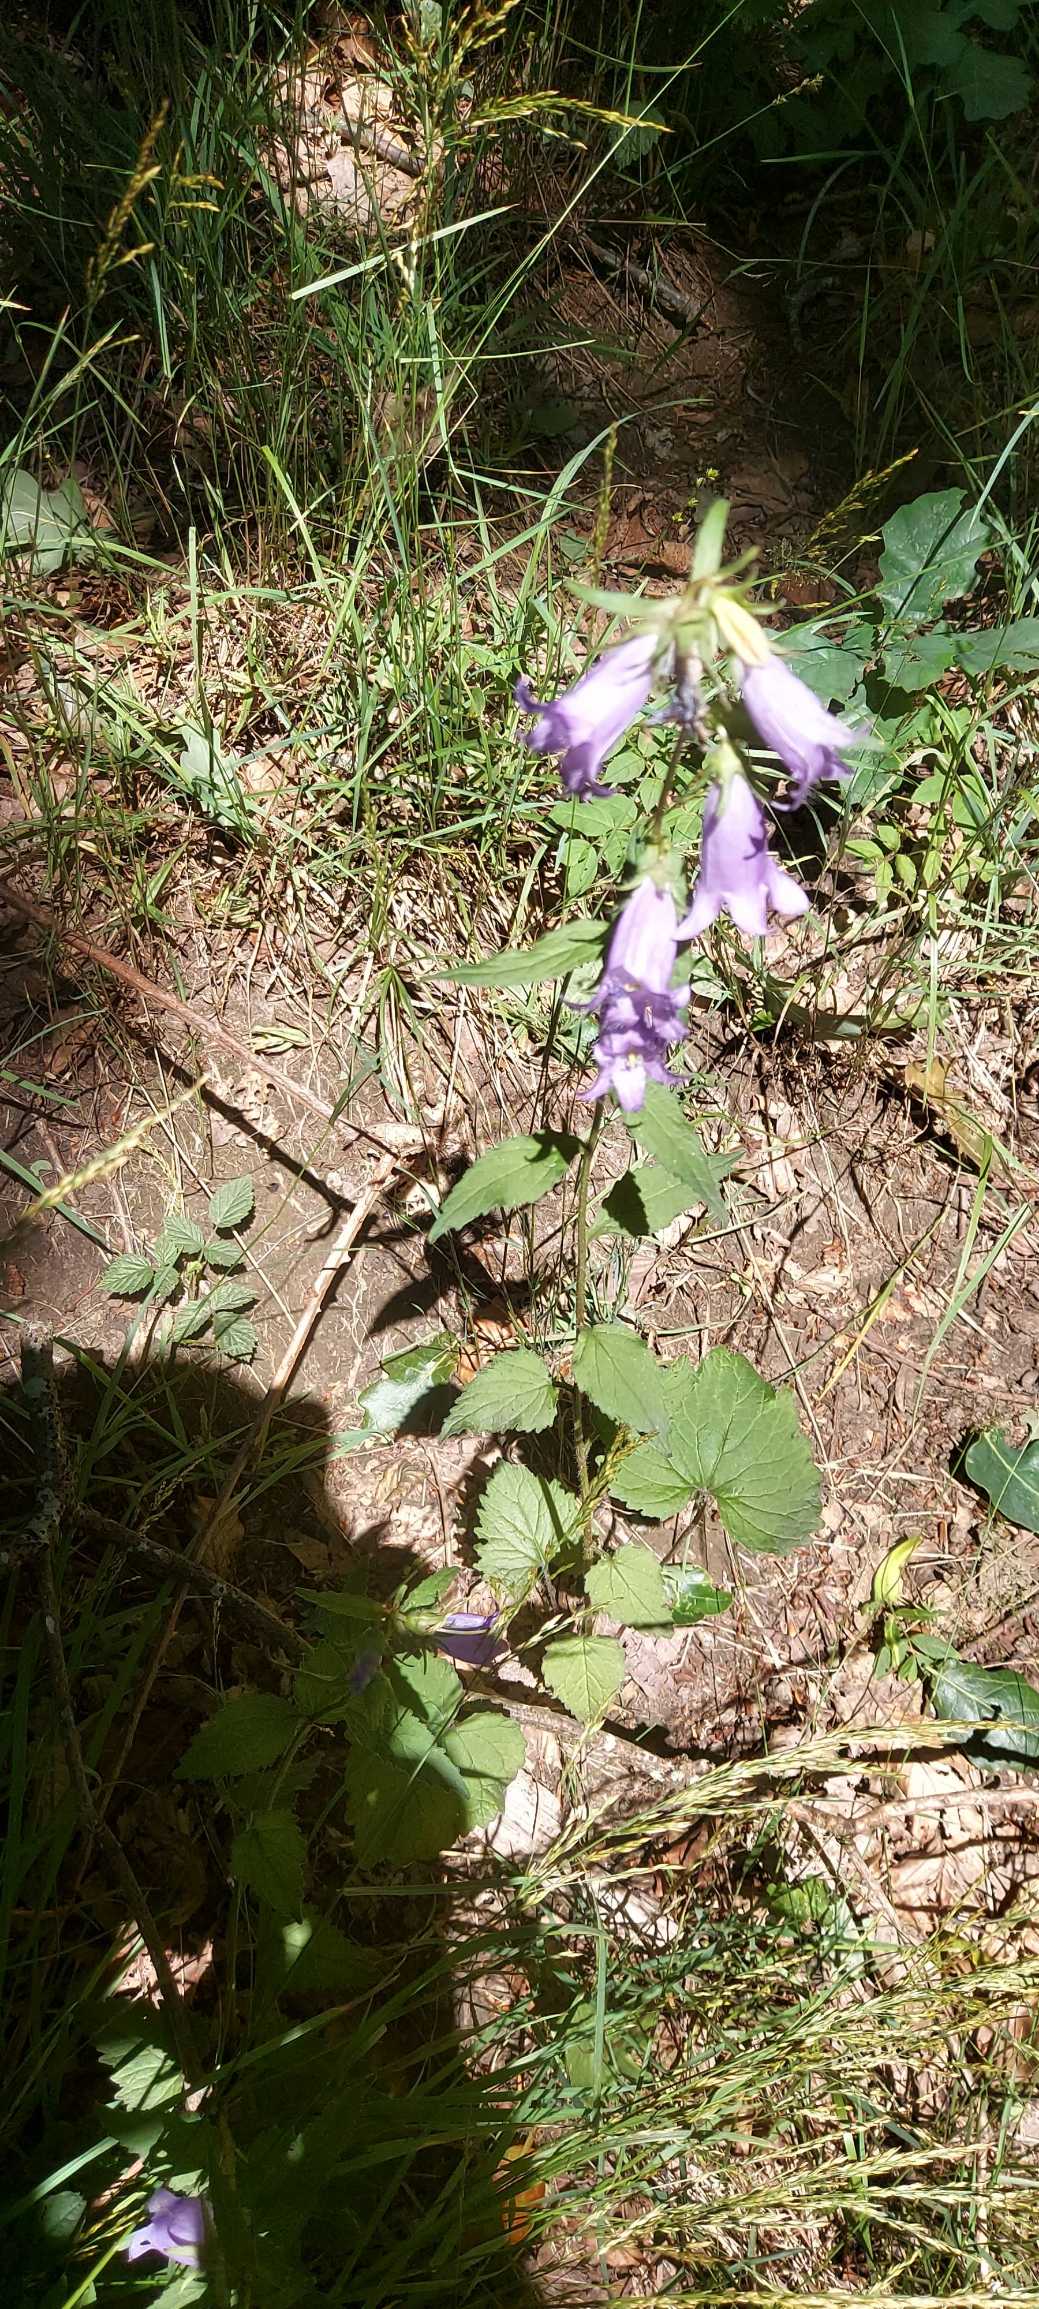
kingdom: Plantae
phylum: Tracheophyta
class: Magnoliopsida
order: Asterales
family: Campanulaceae
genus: Campanula
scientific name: Campanula trachelium
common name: Nælde-klokke
